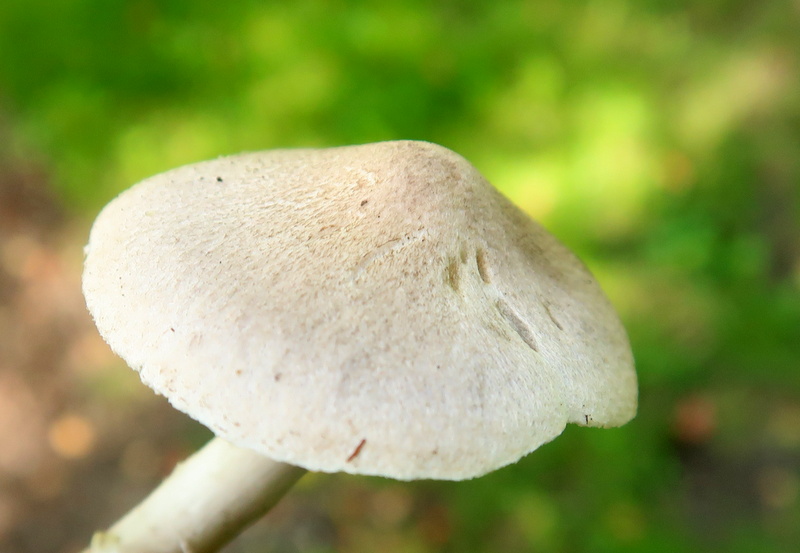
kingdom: Fungi
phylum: Basidiomycota
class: Agaricomycetes
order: Agaricales
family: Tricholomataceae
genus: Tricholoma
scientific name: Tricholoma argyraceum
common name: spids ridderhat
